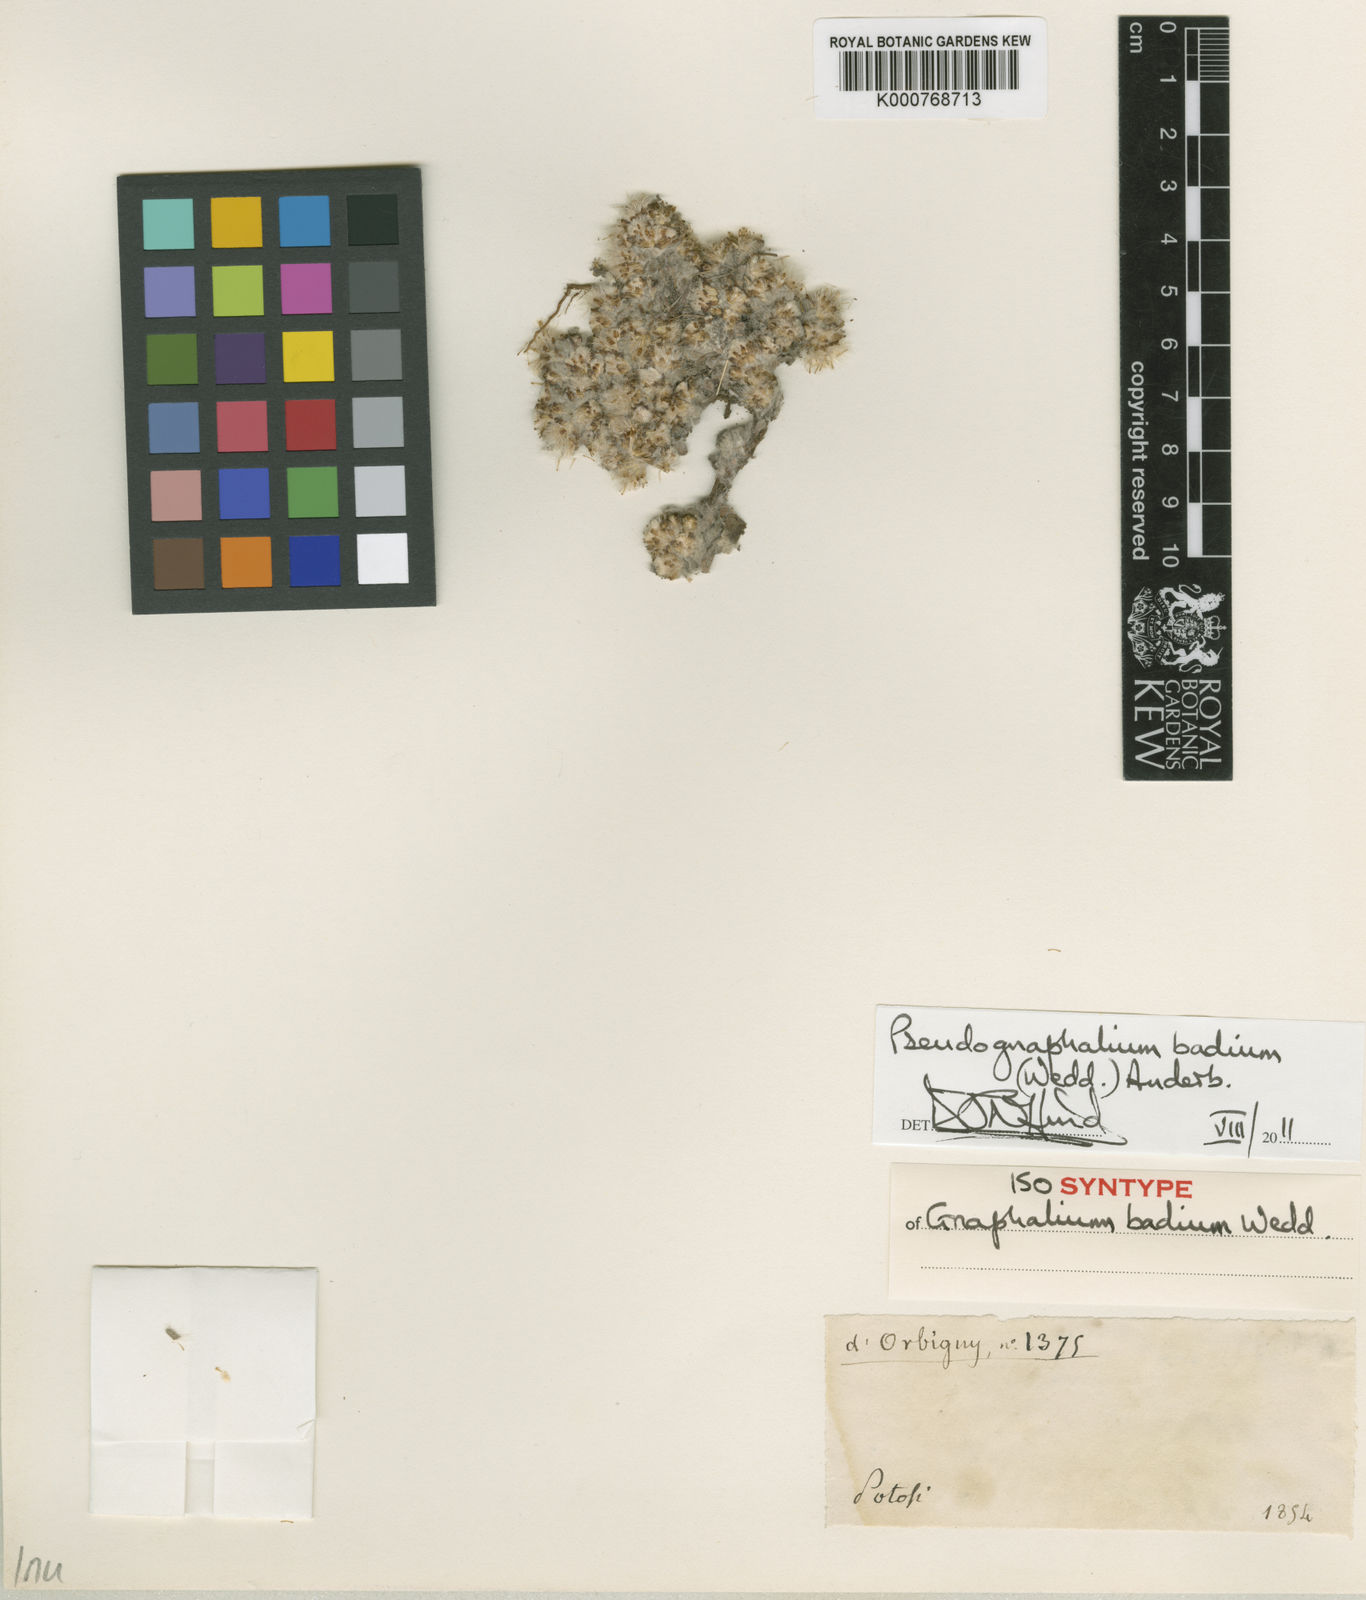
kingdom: Plantae
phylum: Tracheophyta
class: Magnoliopsida
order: Asterales
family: Asteraceae
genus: Pseudognaphalium
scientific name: Pseudognaphalium
